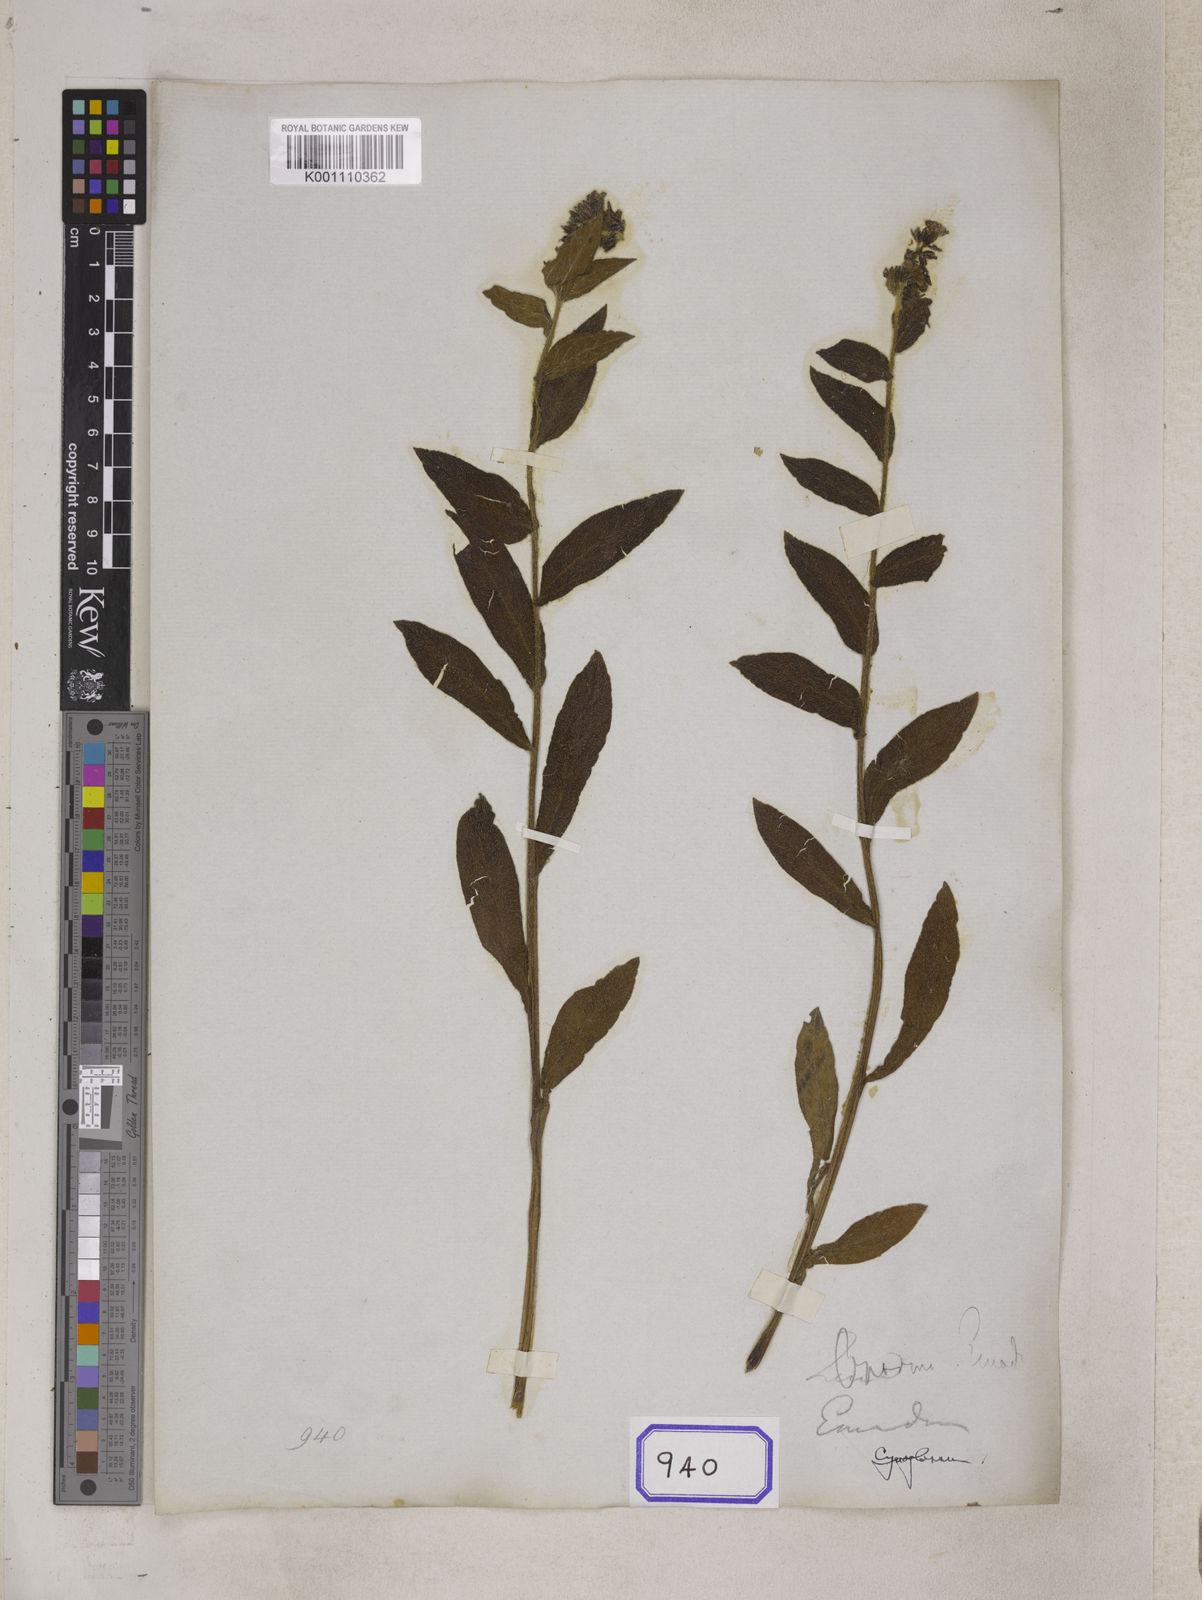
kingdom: Plantae
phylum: Tracheophyta
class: Magnoliopsida
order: Boraginales
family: Boraginaceae
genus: Maharanga
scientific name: Maharanga wallichiana
